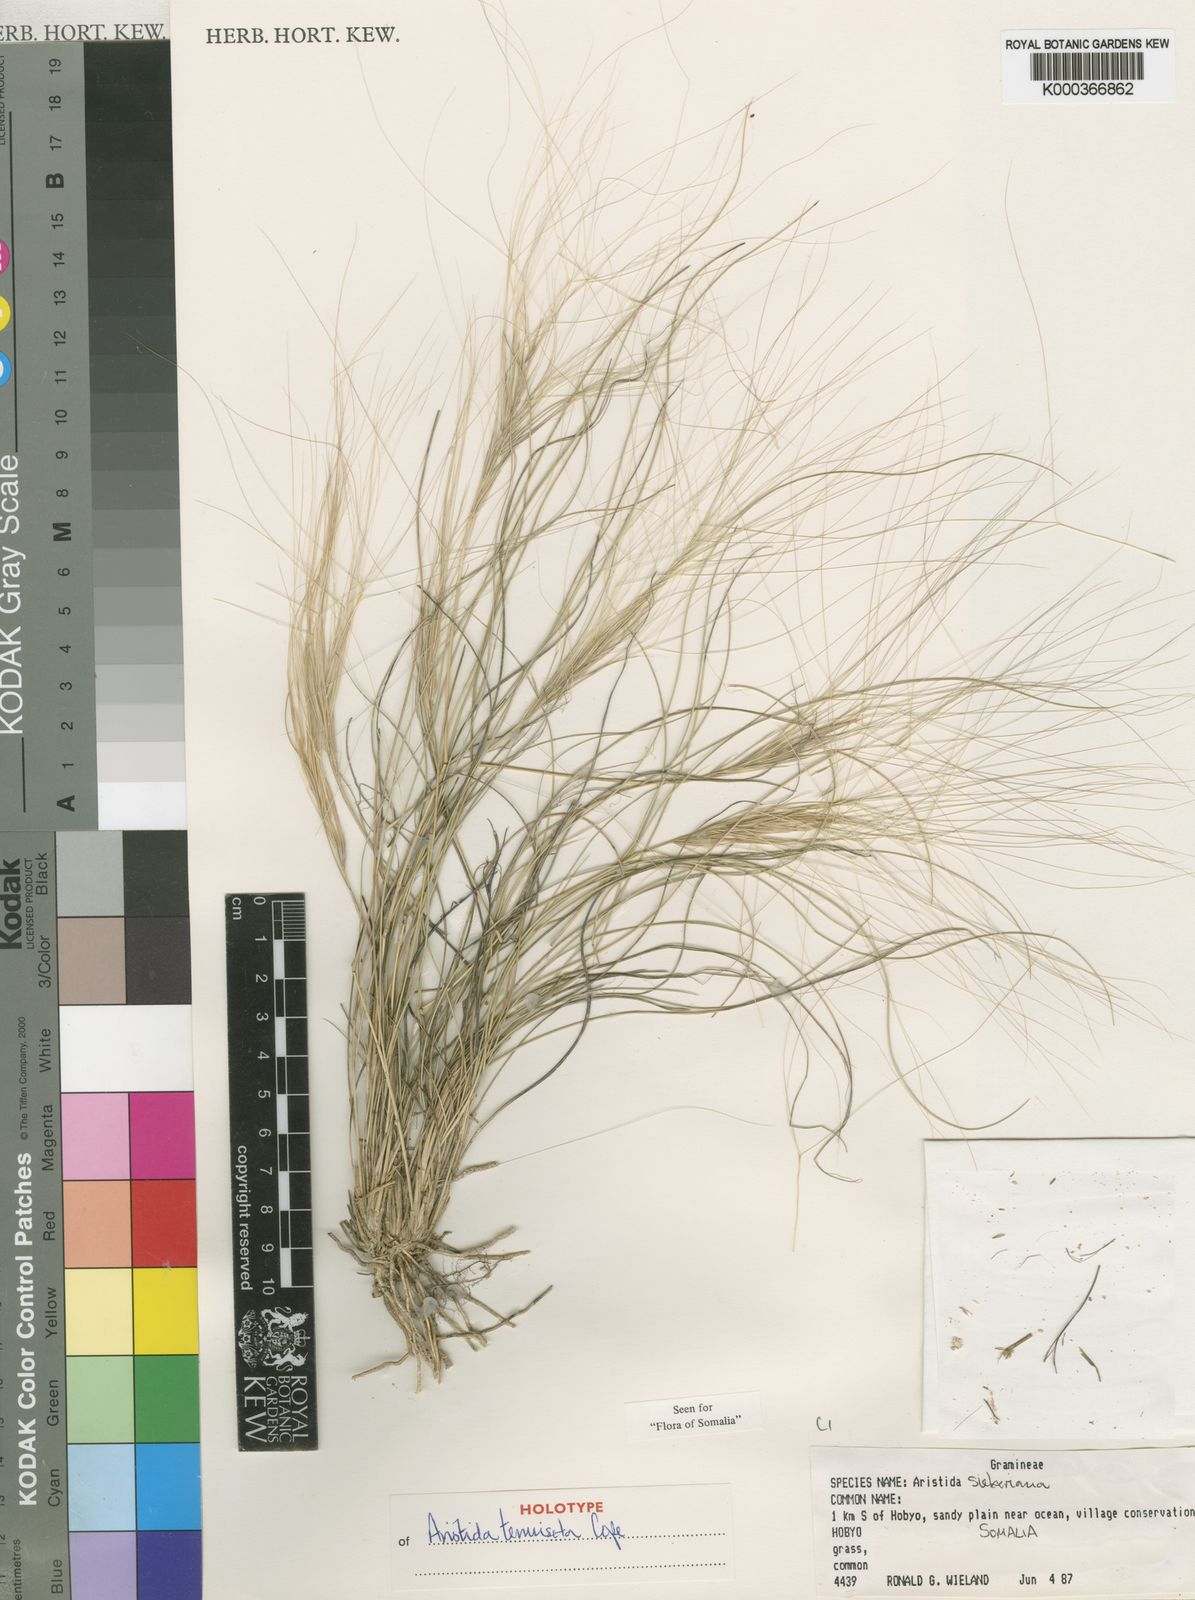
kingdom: Plantae
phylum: Tracheophyta
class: Liliopsida
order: Poales
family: Poaceae
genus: Aristida
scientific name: Aristida tenuiseta
